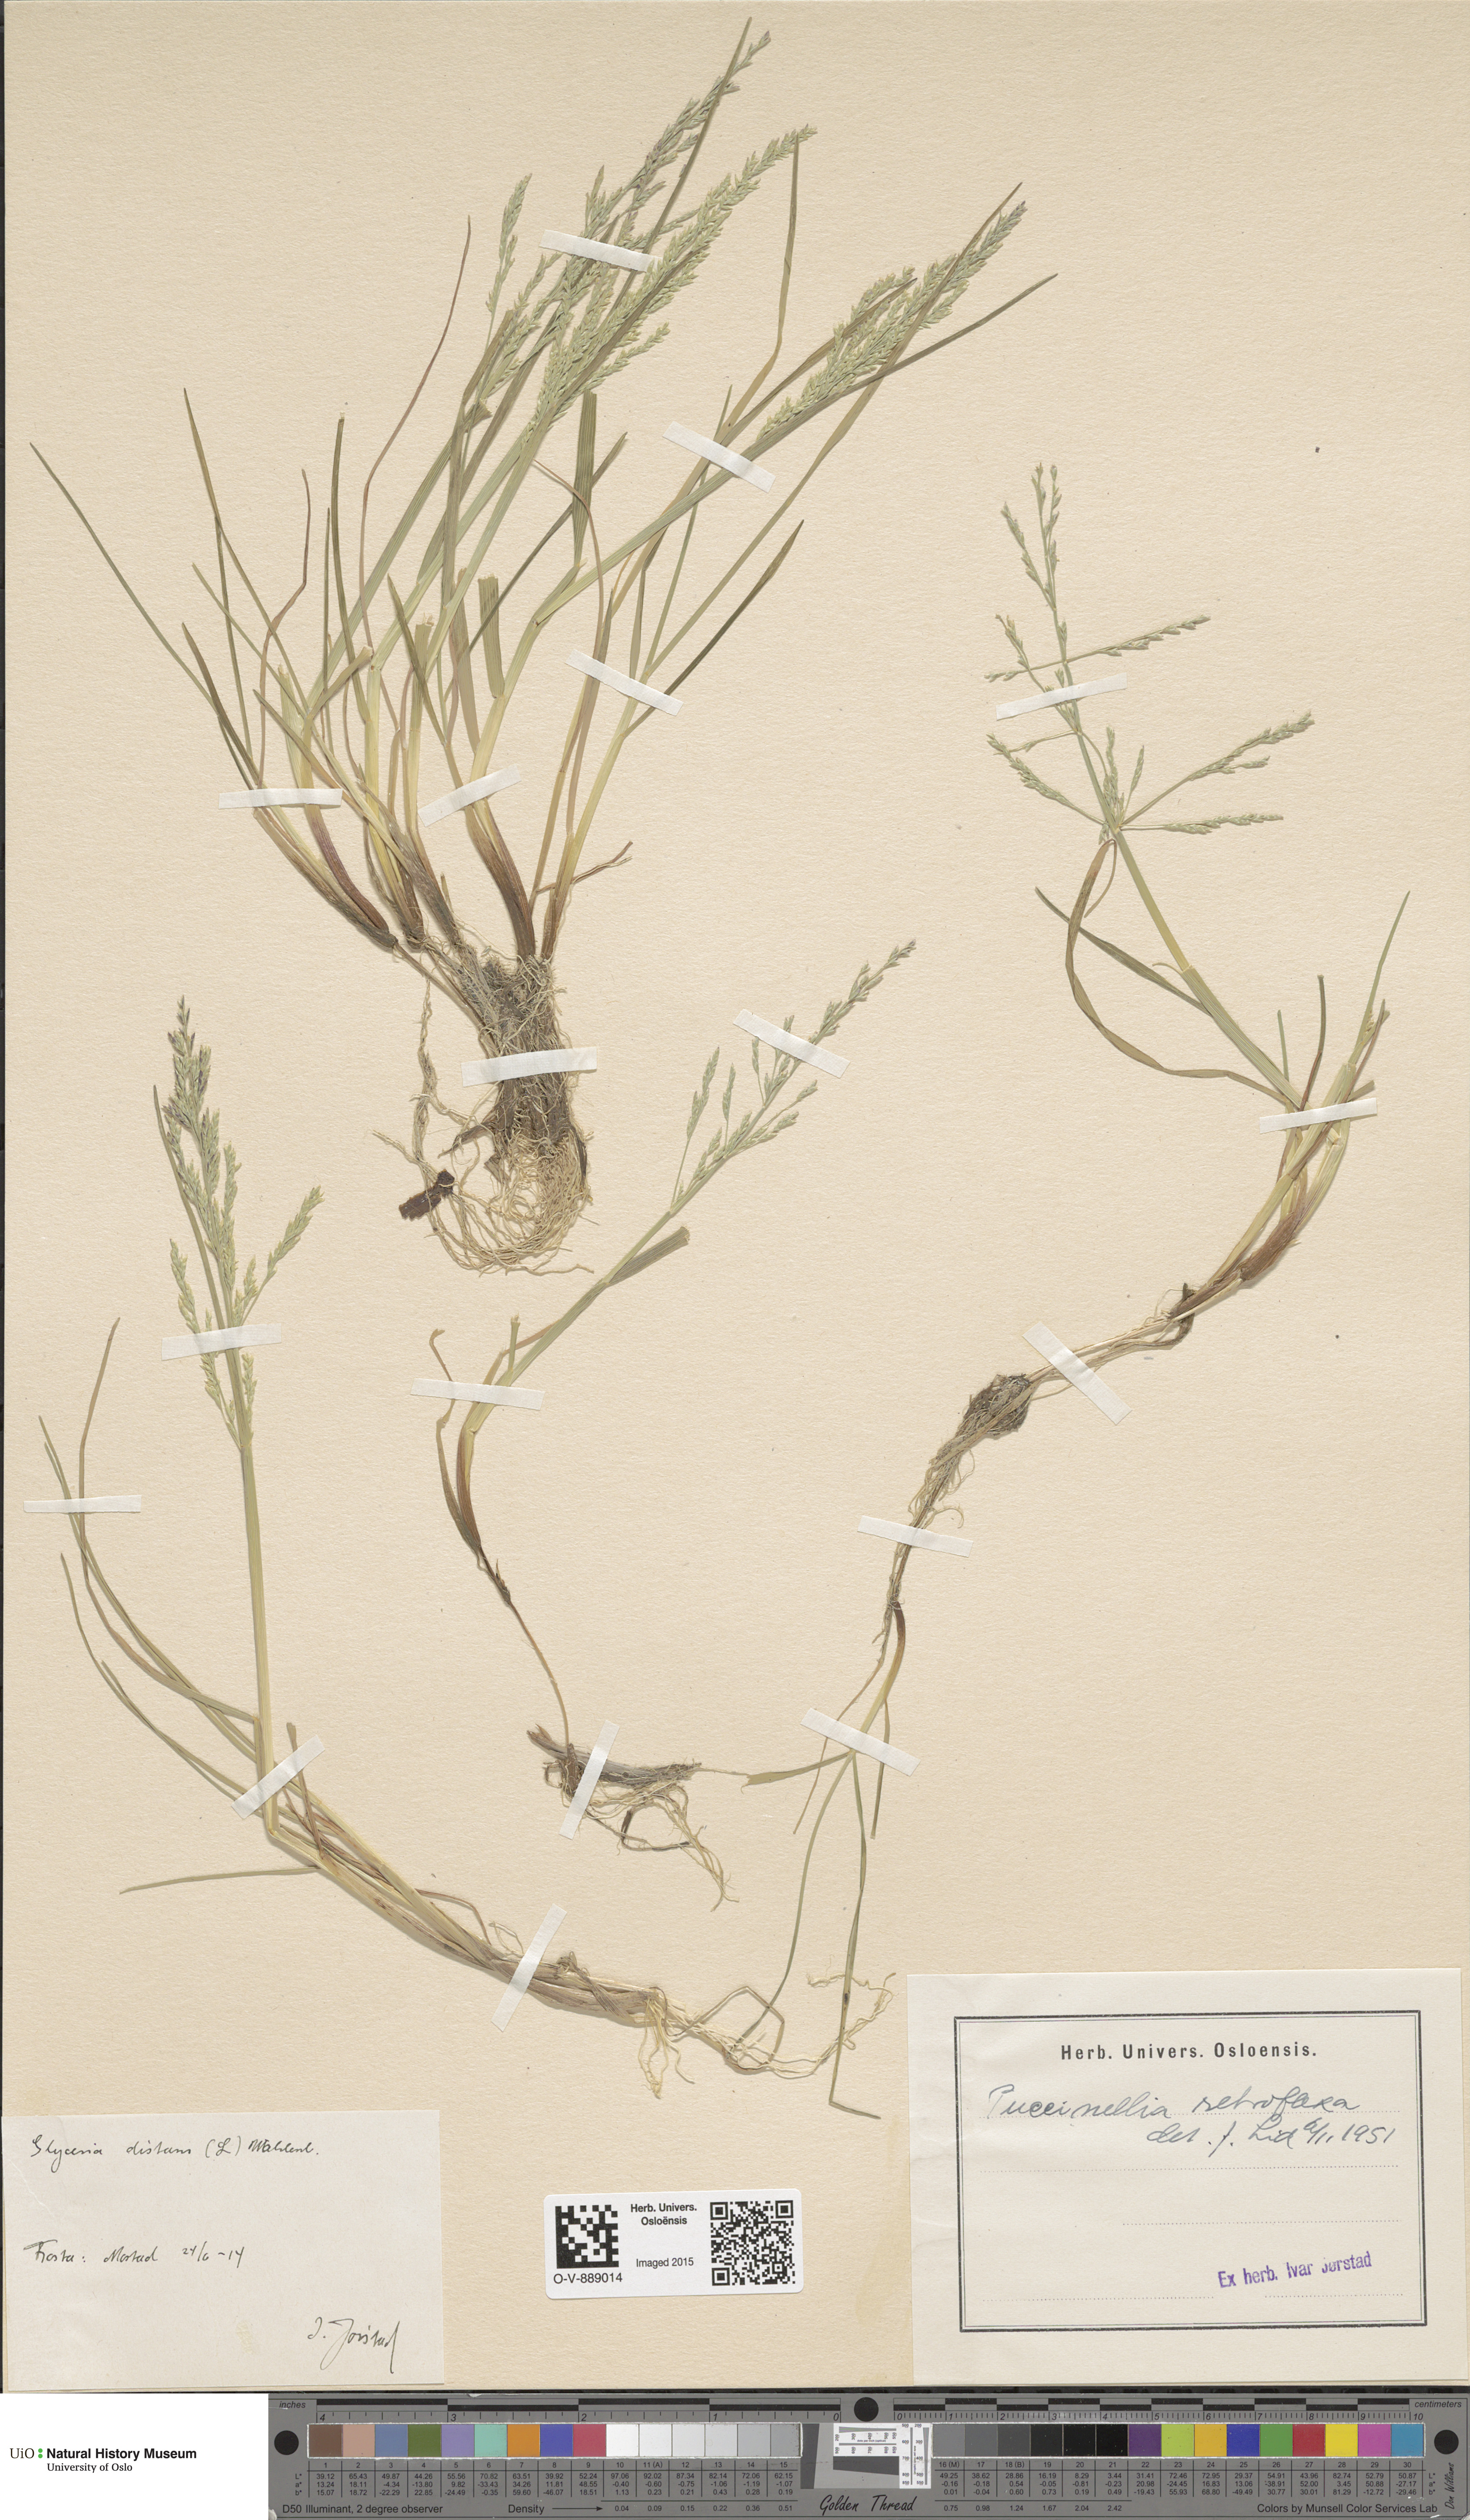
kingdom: Plantae
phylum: Tracheophyta
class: Liliopsida
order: Poales
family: Poaceae
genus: Puccinellia
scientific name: Puccinellia distans
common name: Weeping alkaligrass
